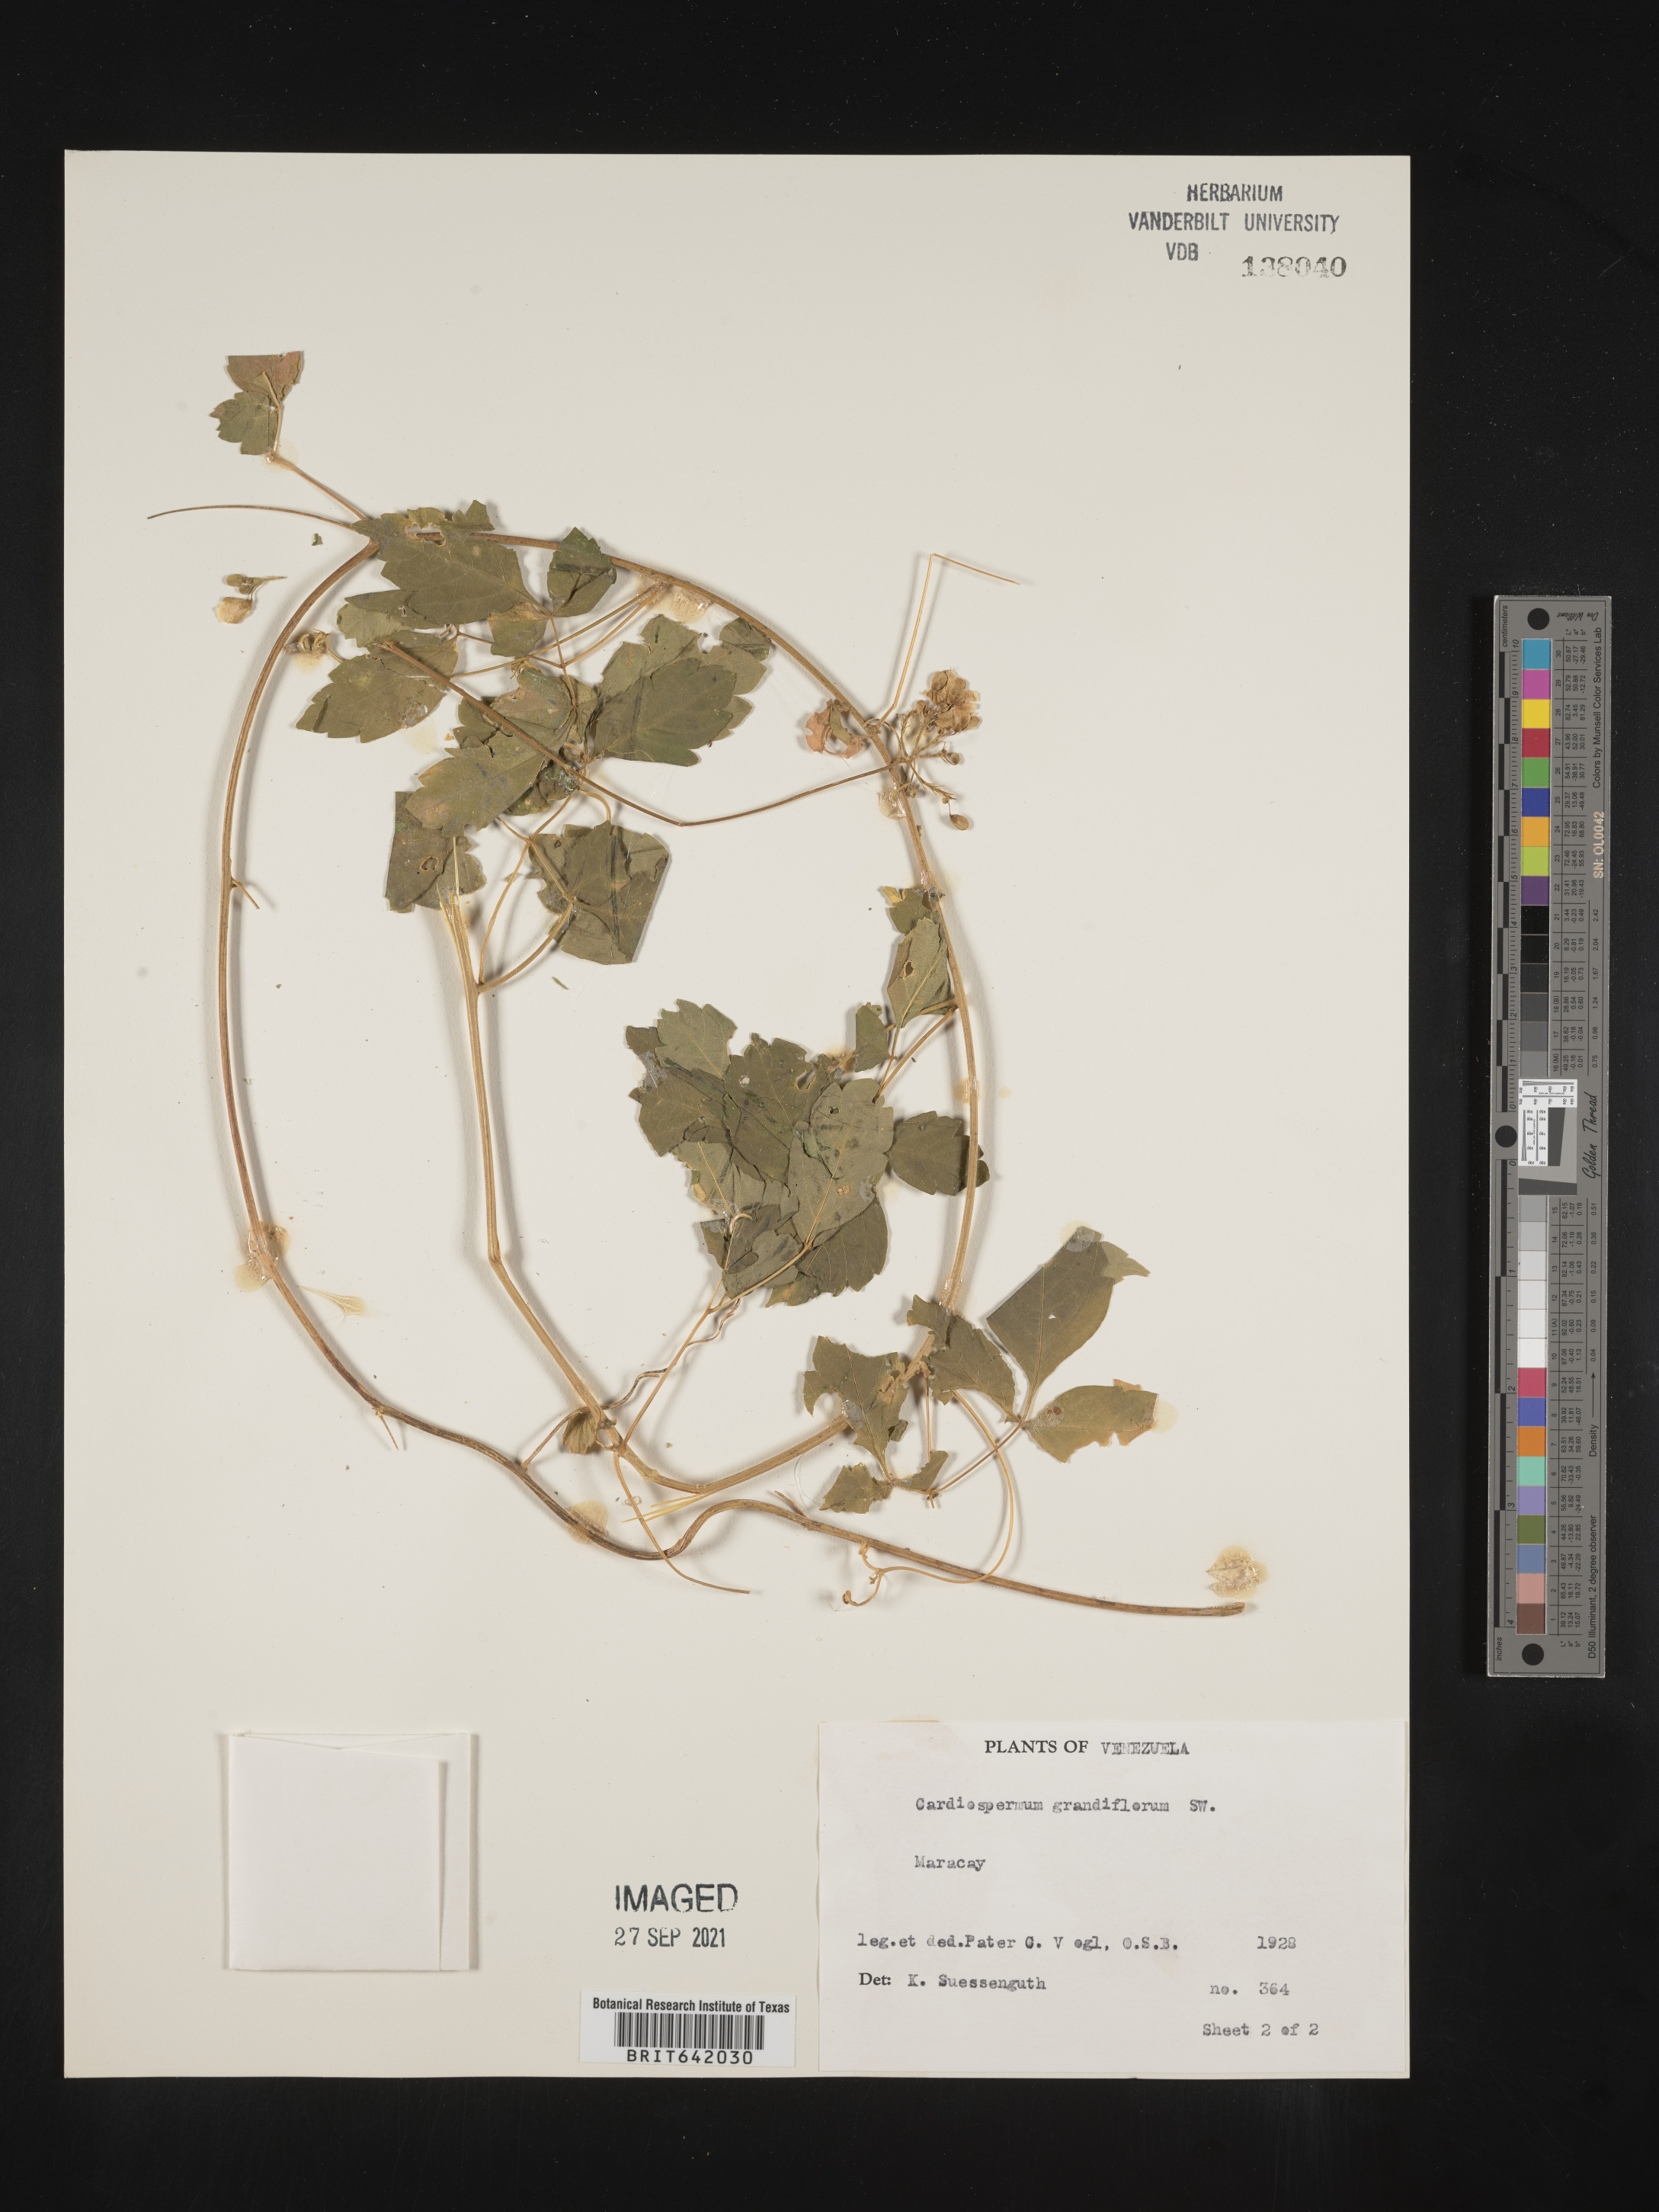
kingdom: Plantae
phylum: Tracheophyta
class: Magnoliopsida
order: Sapindales
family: Sapindaceae
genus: Cardiospermum
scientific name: Cardiospermum
